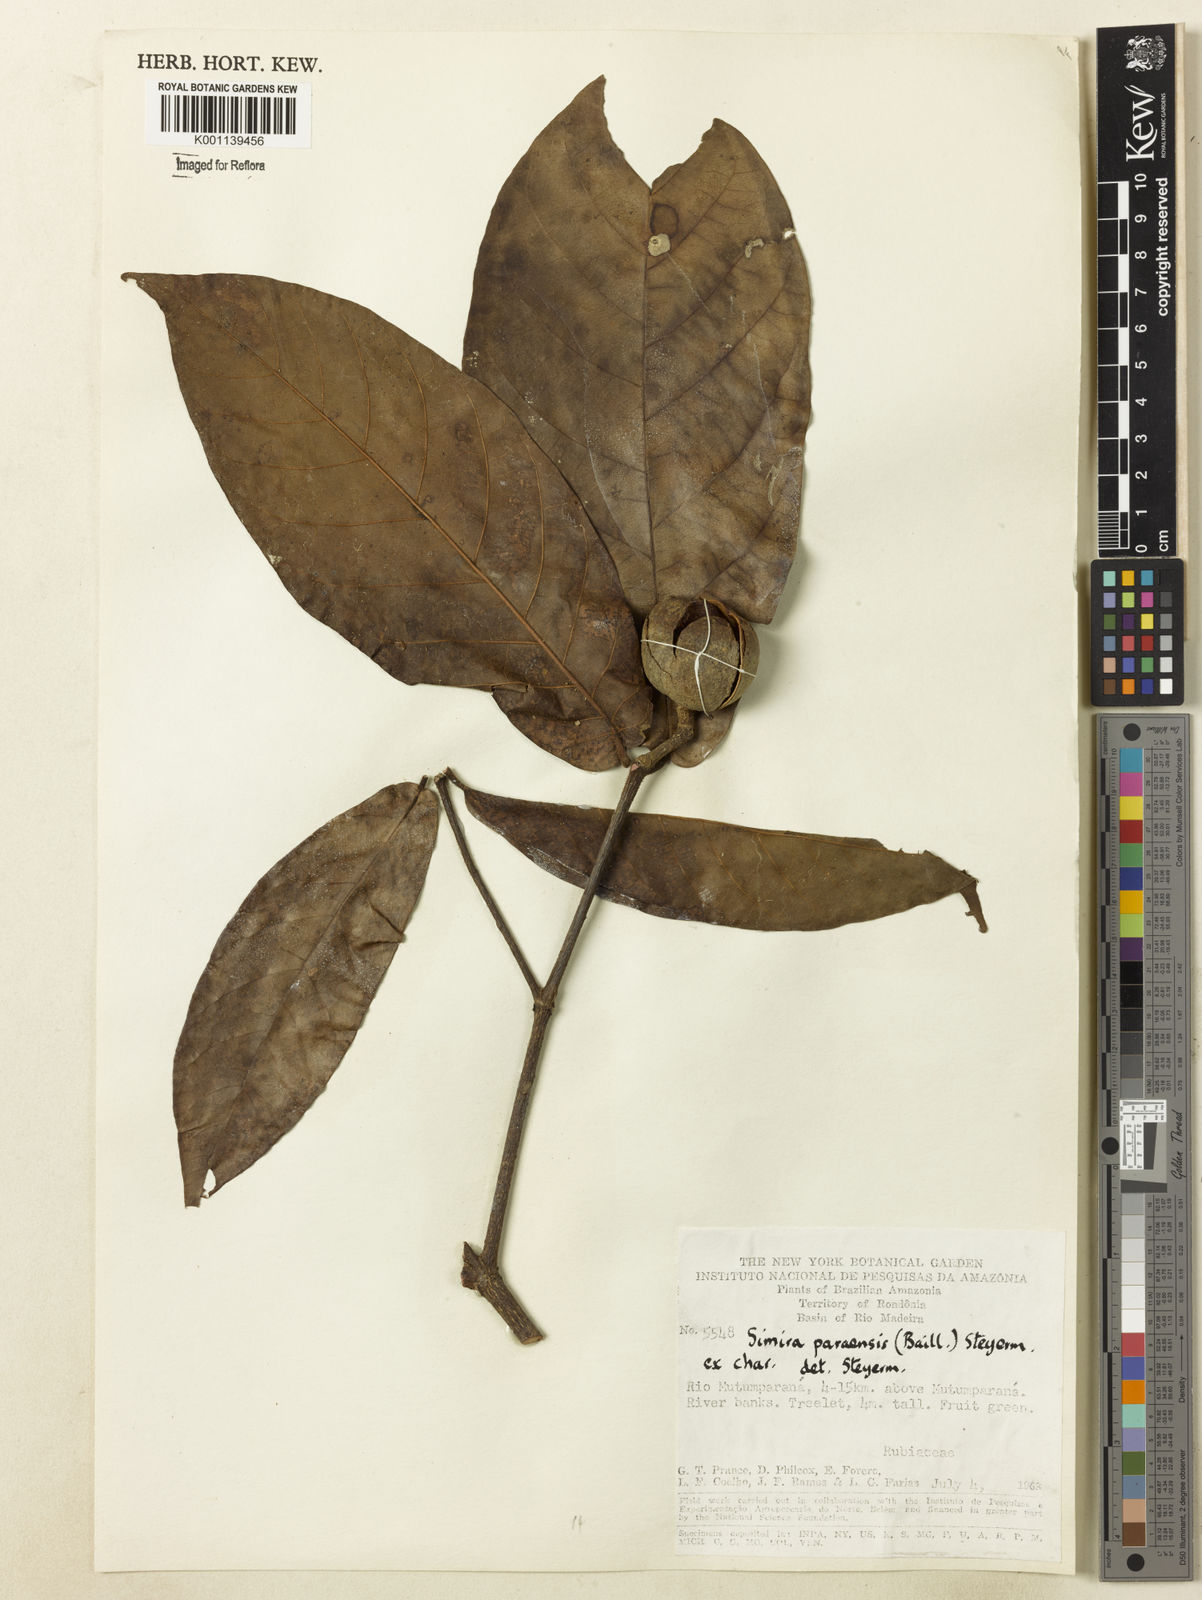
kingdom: Plantae
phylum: Tracheophyta
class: Magnoliopsida
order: Gentianales
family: Rubiaceae
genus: Simira
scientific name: Simira paraensis
